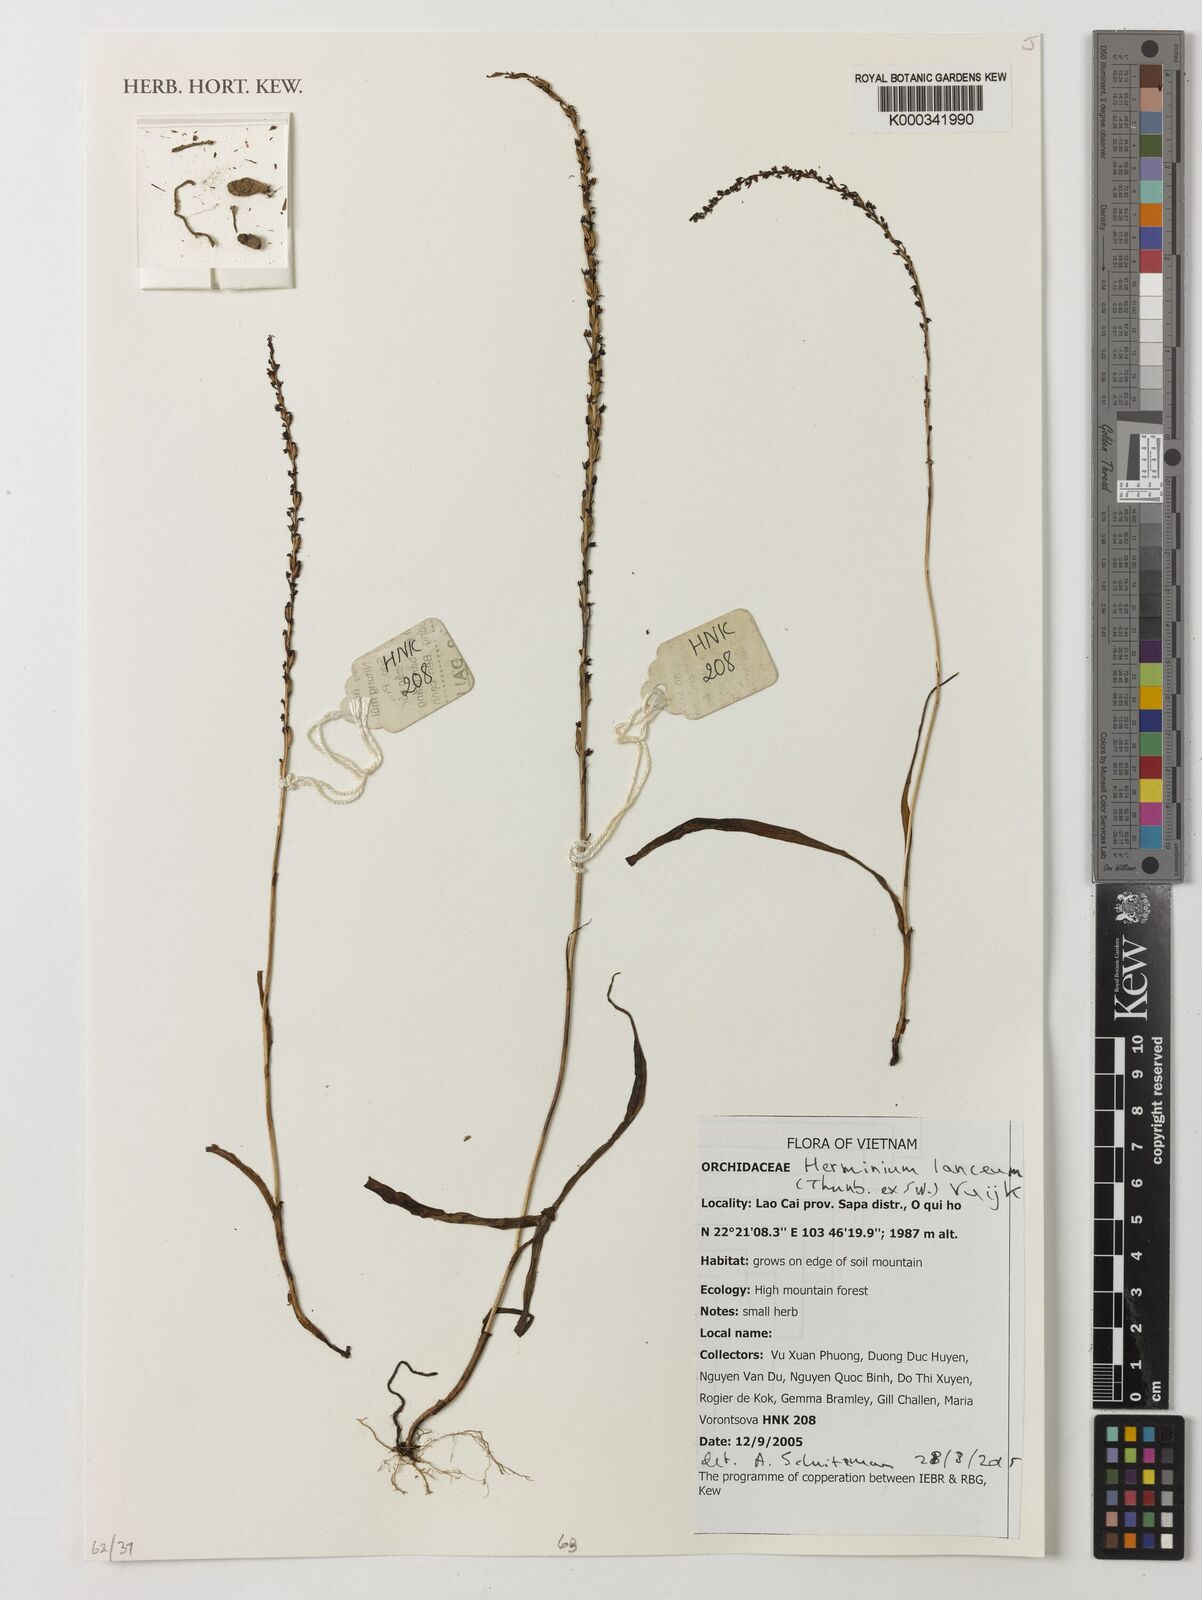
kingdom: Plantae
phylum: Tracheophyta
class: Liliopsida
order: Asparagales
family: Orchidaceae
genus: Herminium
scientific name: Herminium lanceum
